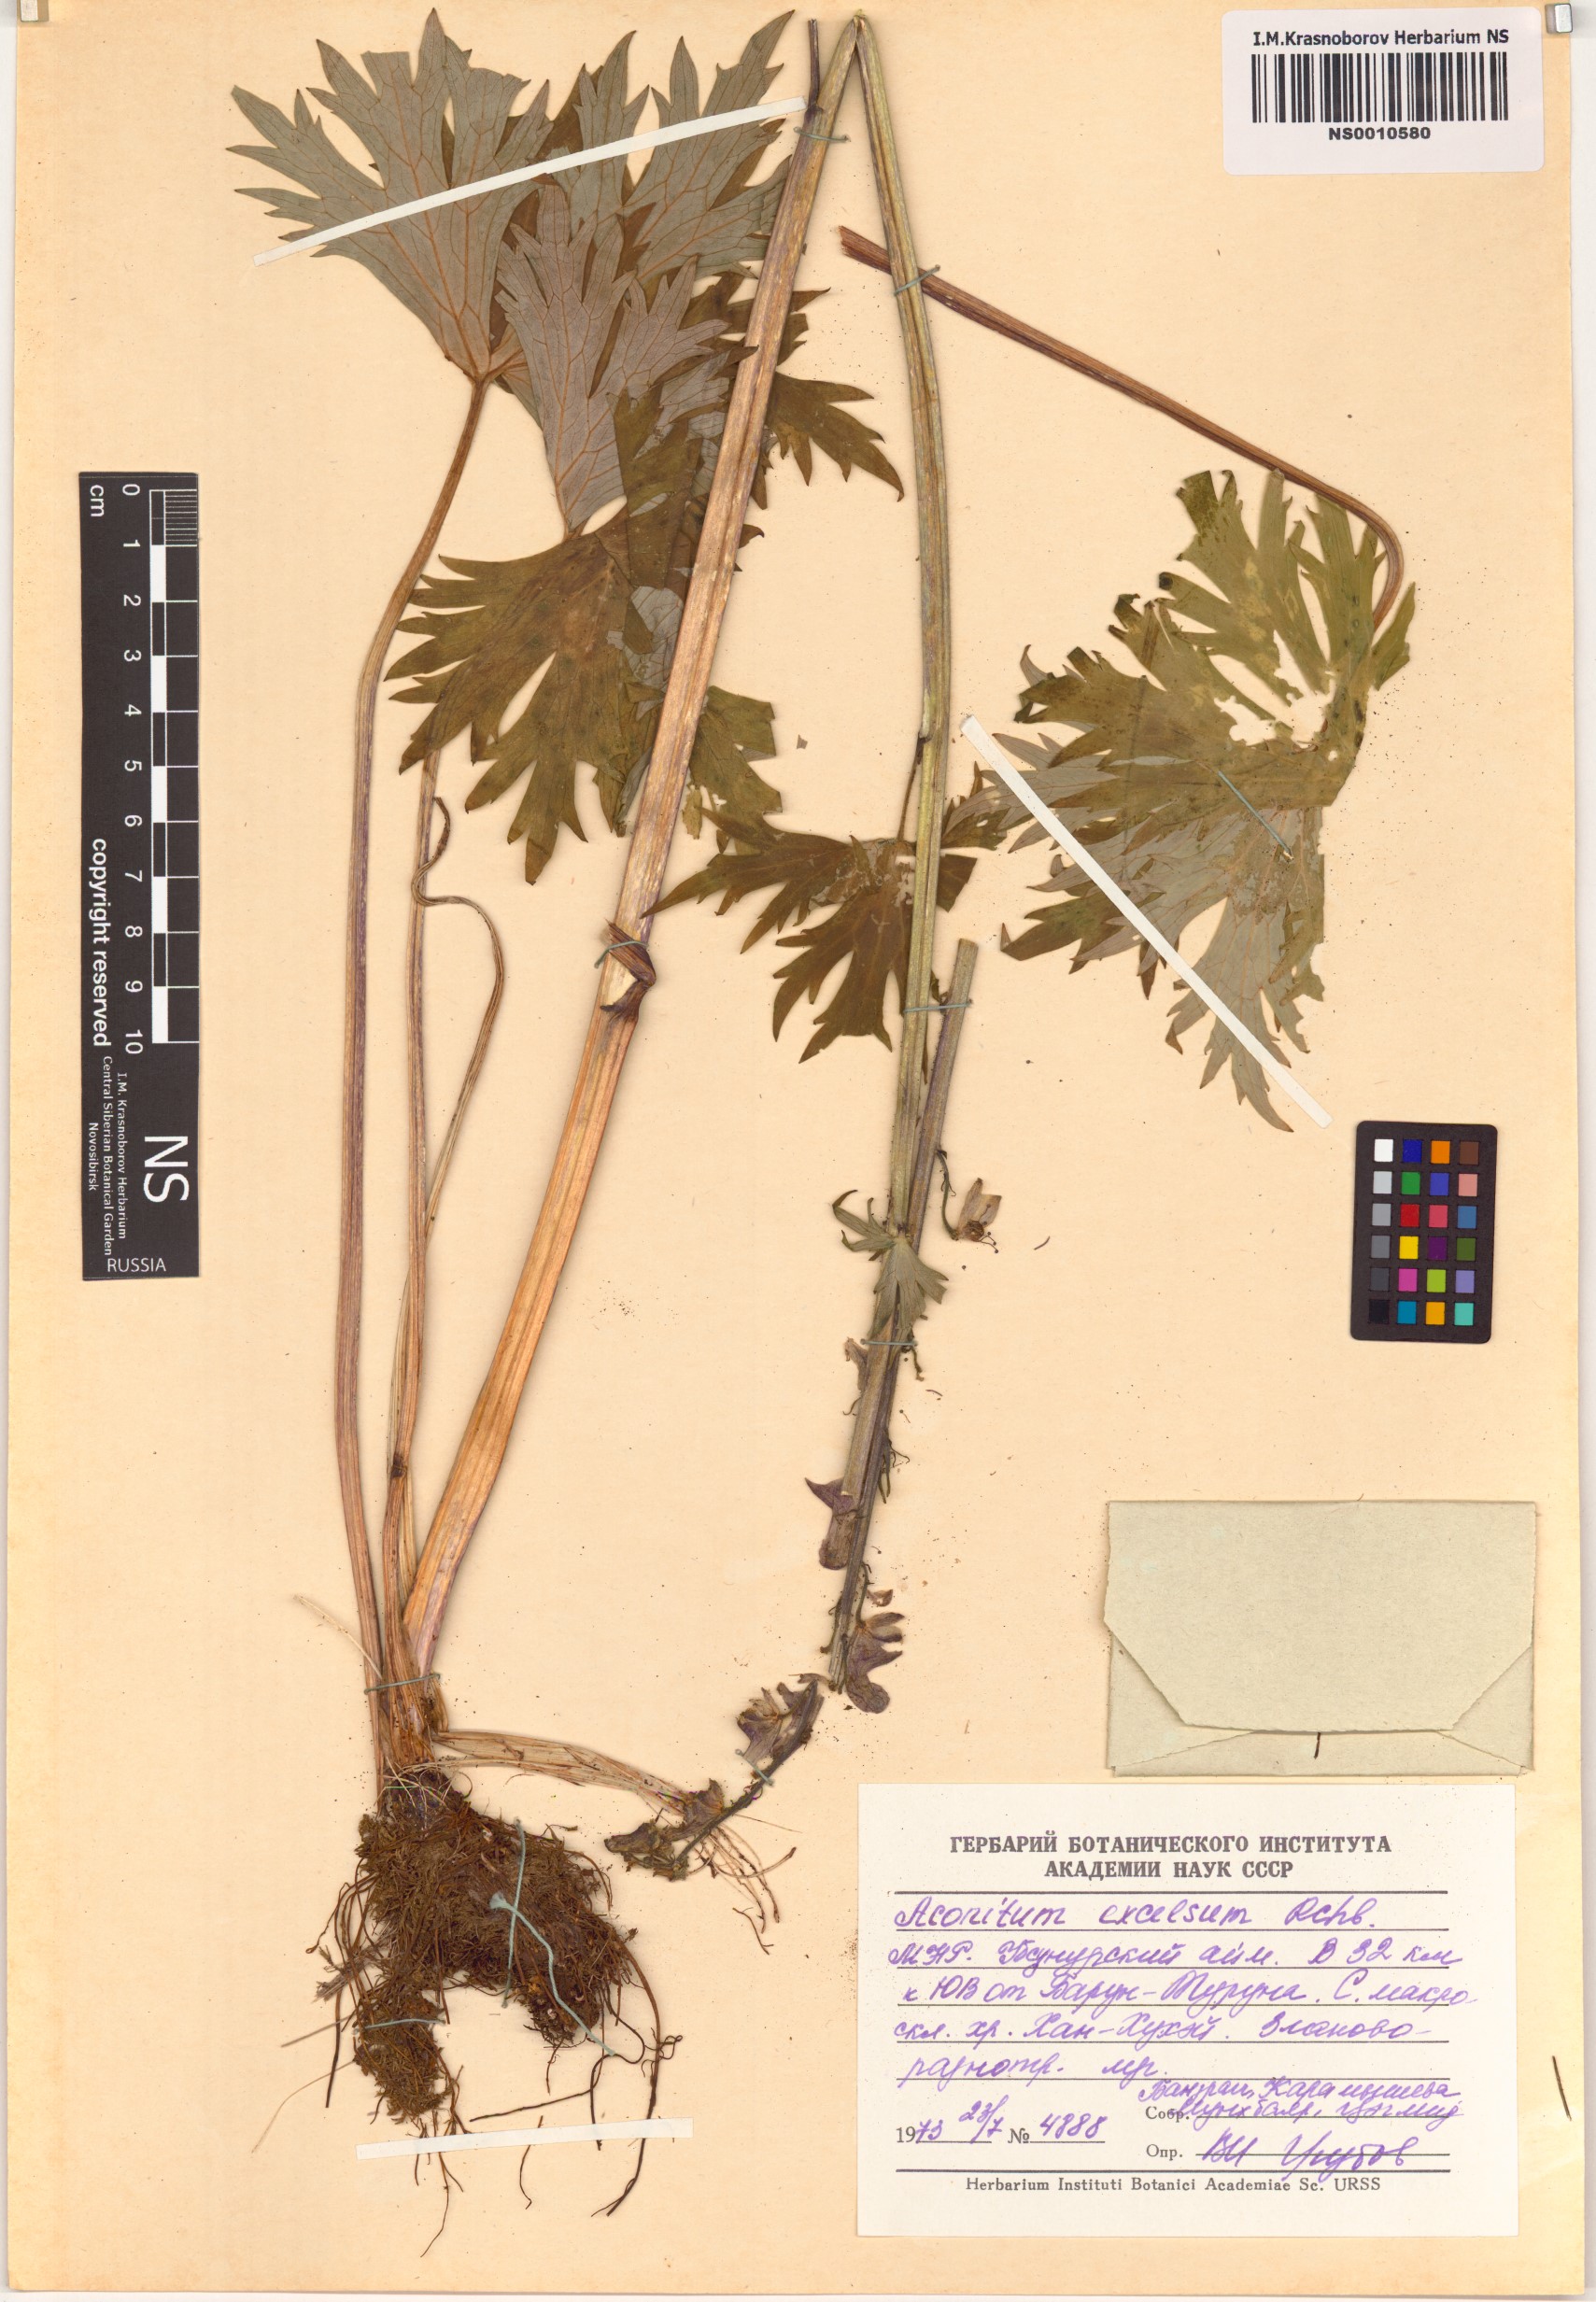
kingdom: Plantae
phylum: Tracheophyta
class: Magnoliopsida
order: Ranunculales
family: Ranunculaceae
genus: Aconitum
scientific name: Aconitum septentrionale
